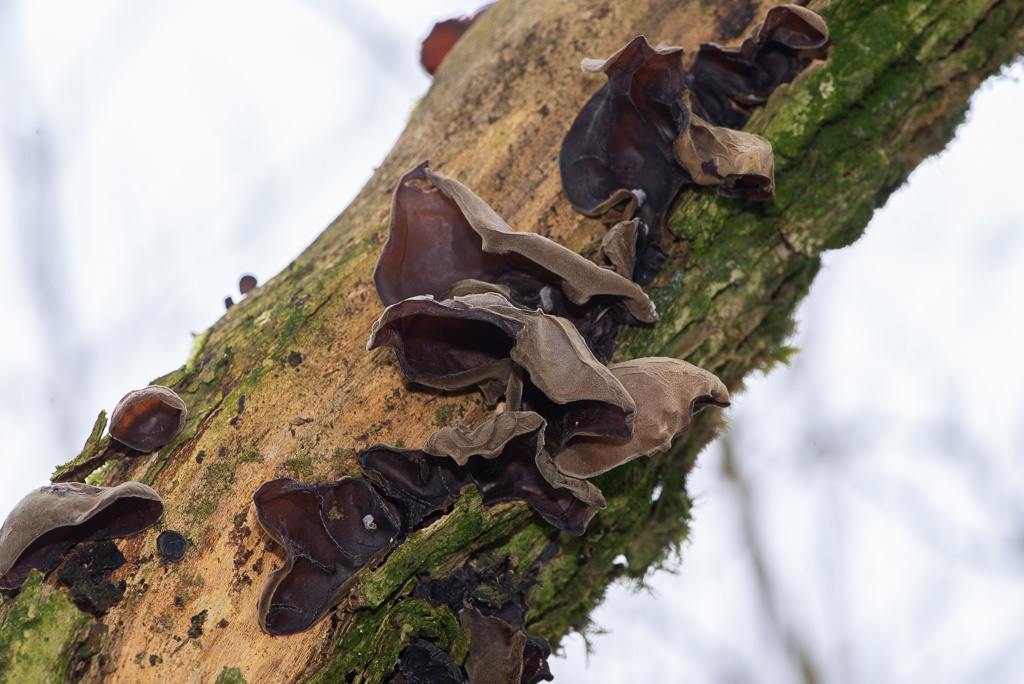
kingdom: Fungi
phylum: Basidiomycota
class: Agaricomycetes
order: Auriculariales
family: Auriculariaceae
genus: Auricularia
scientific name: Auricularia auricula-judae
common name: almindelig judasøre
